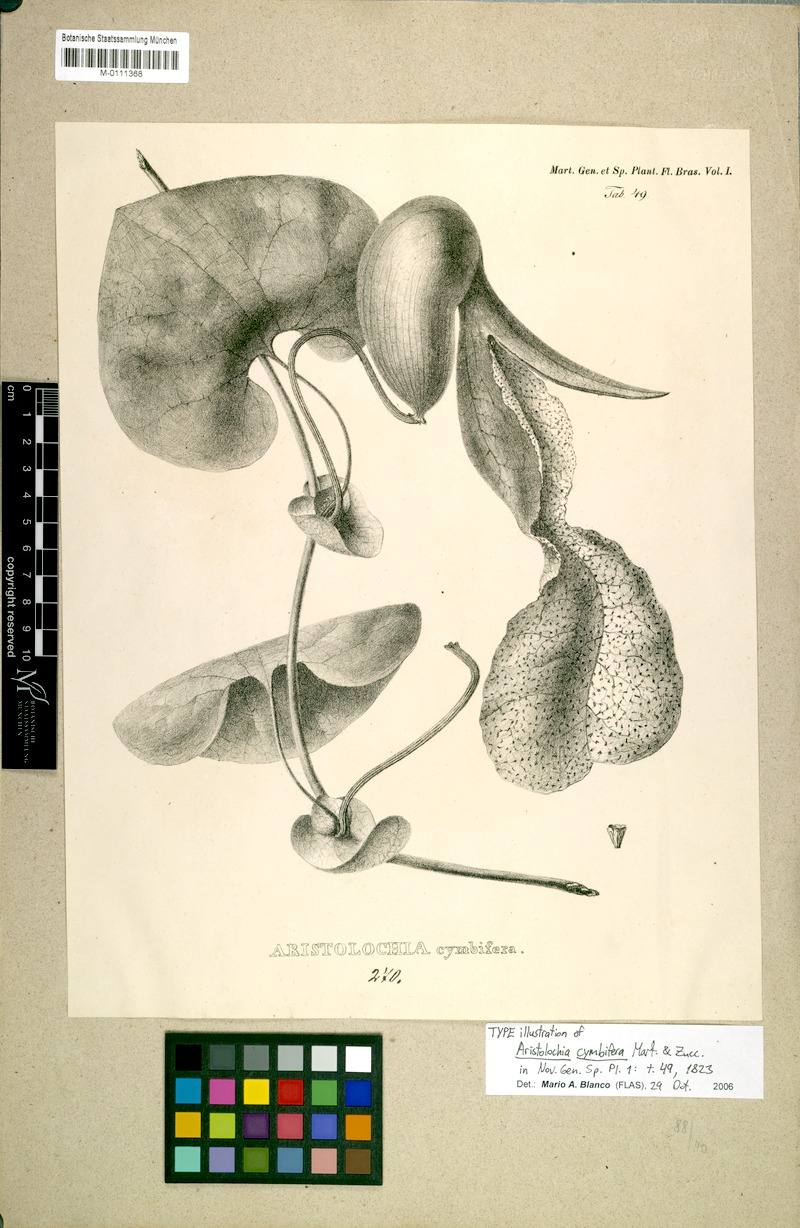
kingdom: Plantae
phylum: Tracheophyta
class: Magnoliopsida
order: Piperales
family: Aristolochiaceae
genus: Aristolochia
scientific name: Aristolochia cymbifera
